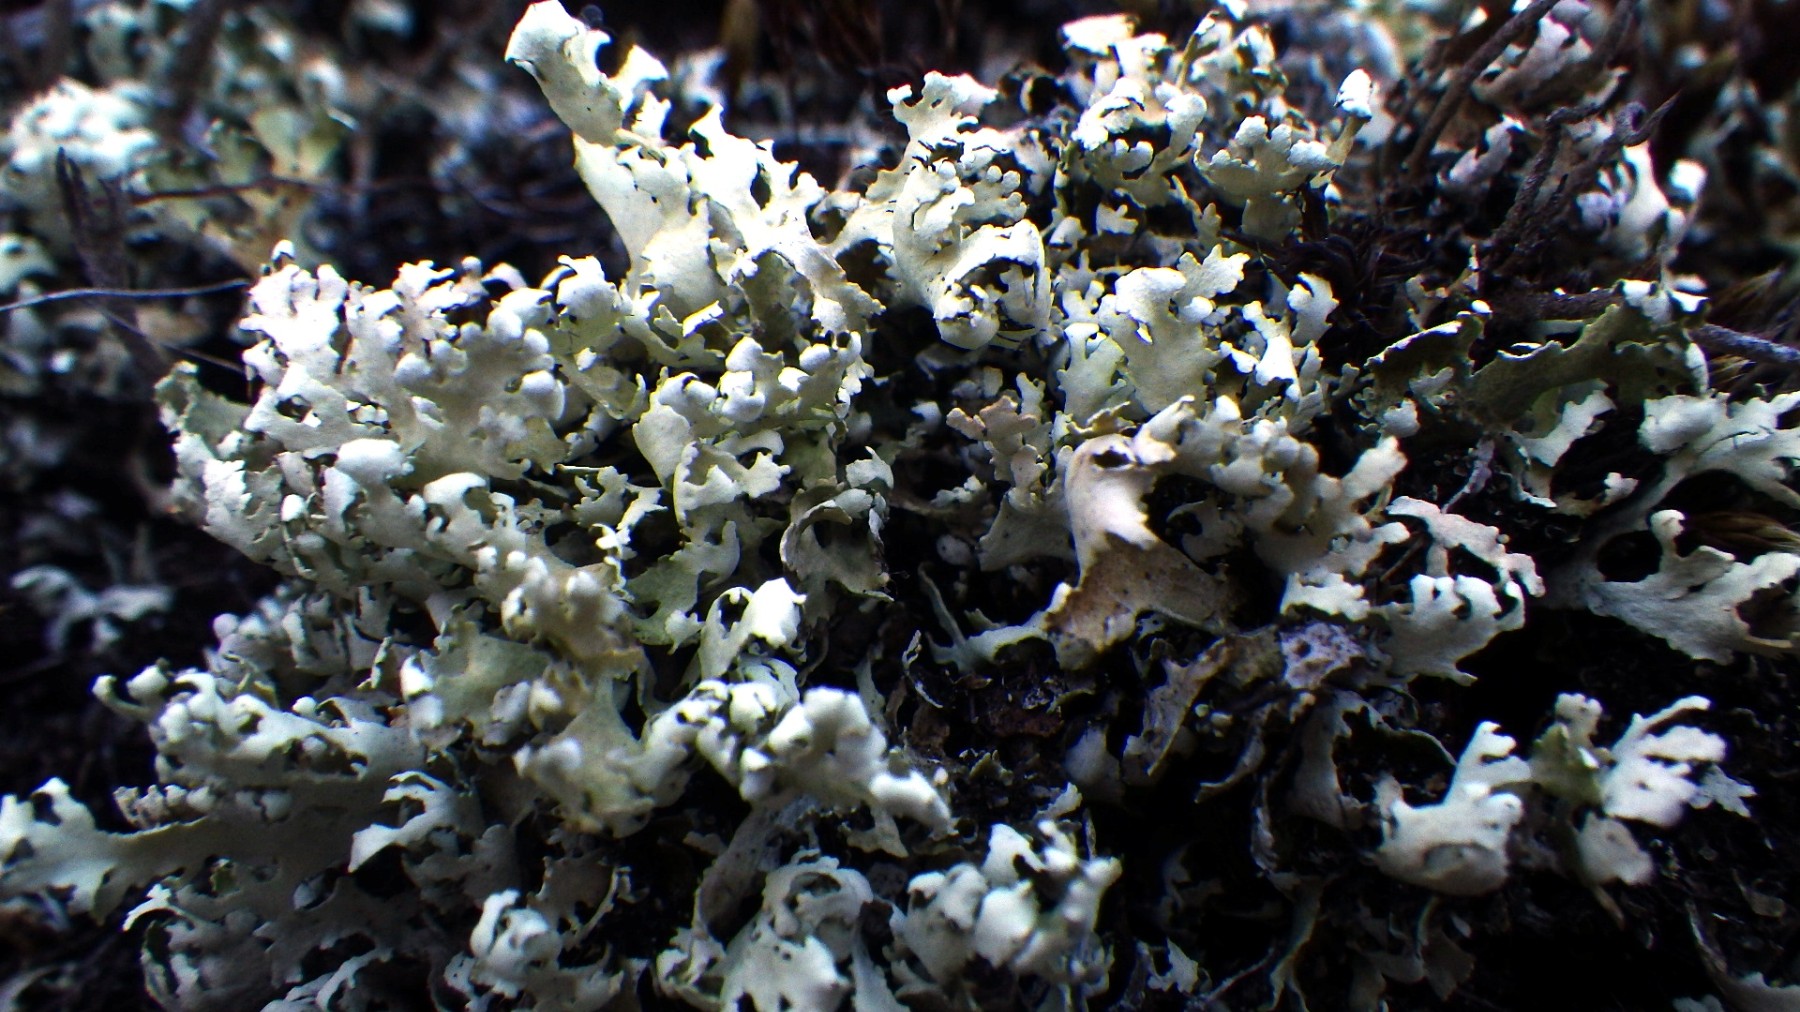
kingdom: Fungi
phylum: Ascomycota
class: Lecanoromycetes
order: Lecanorales
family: Cladoniaceae
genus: Cladonia
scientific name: Cladonia foliacea
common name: fliget bægerlav
